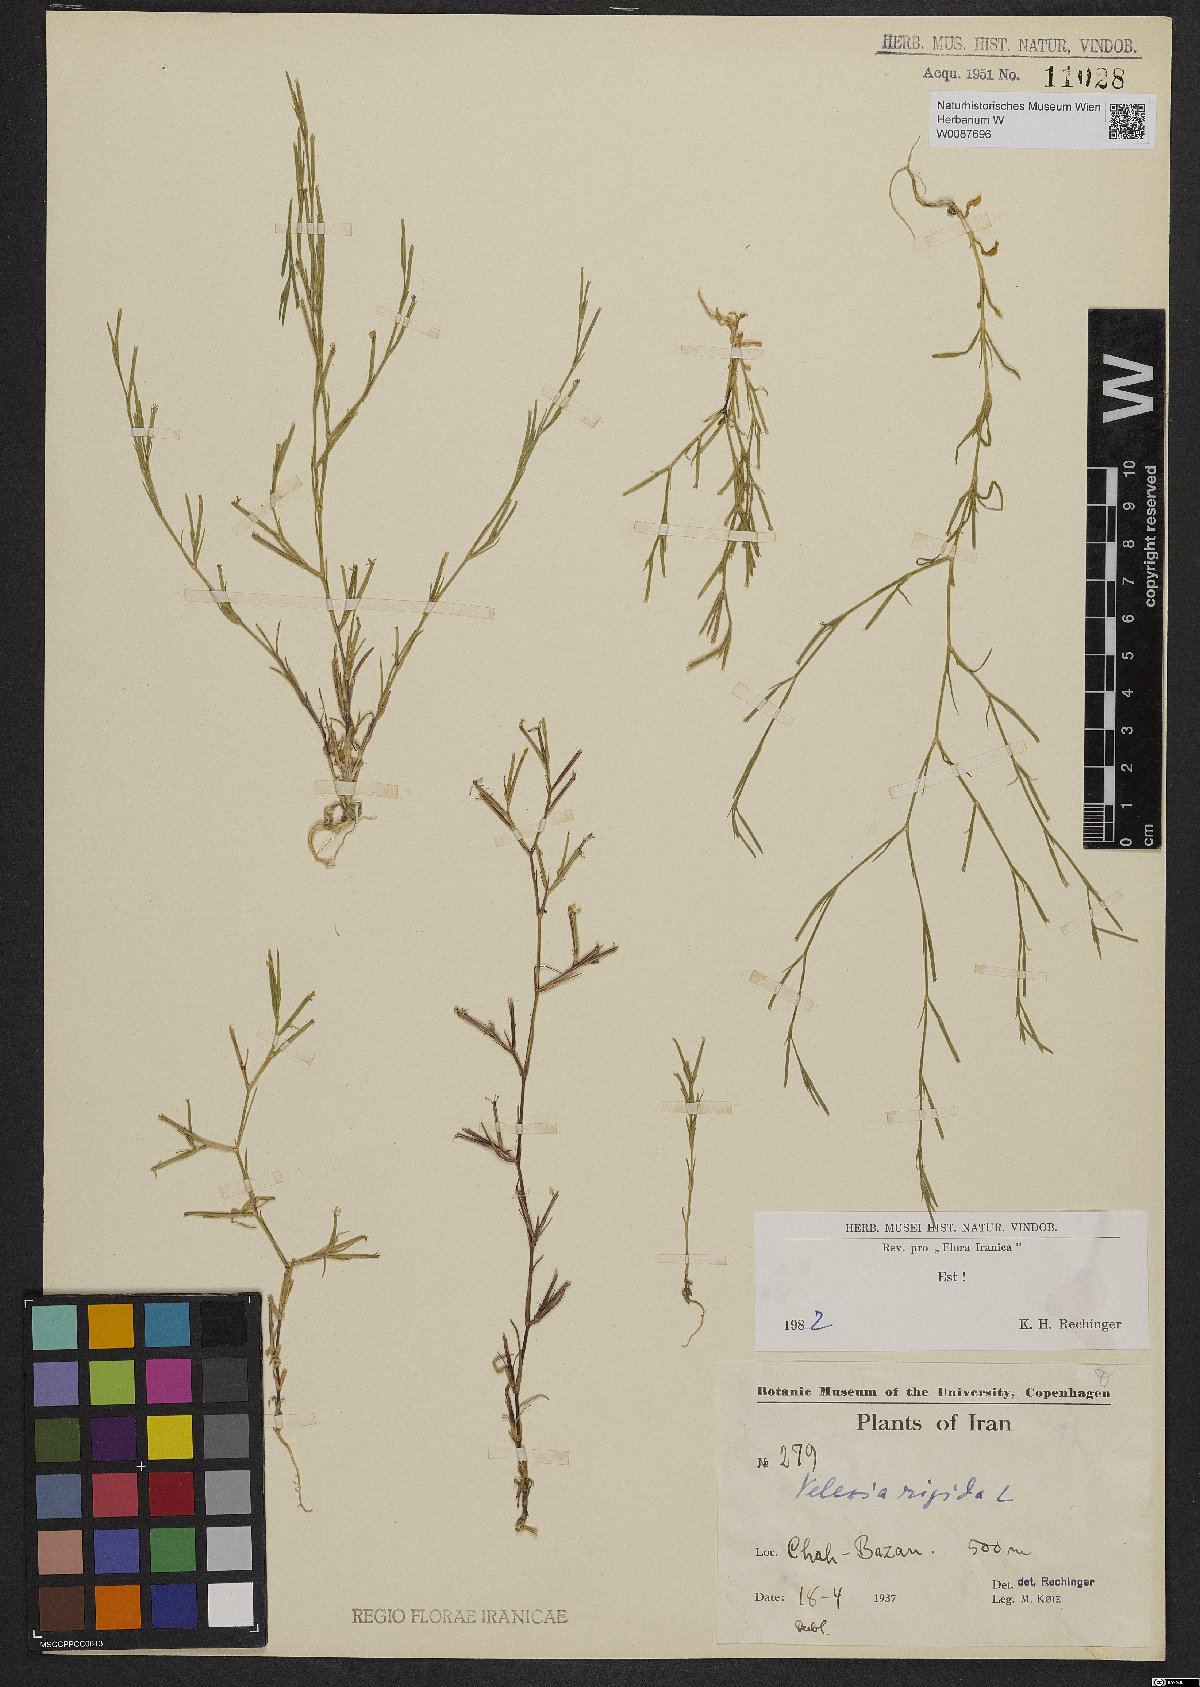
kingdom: Plantae
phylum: Tracheophyta
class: Magnoliopsida
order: Caryophyllales
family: Caryophyllaceae
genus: Dianthus
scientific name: Dianthus nudiflorus
